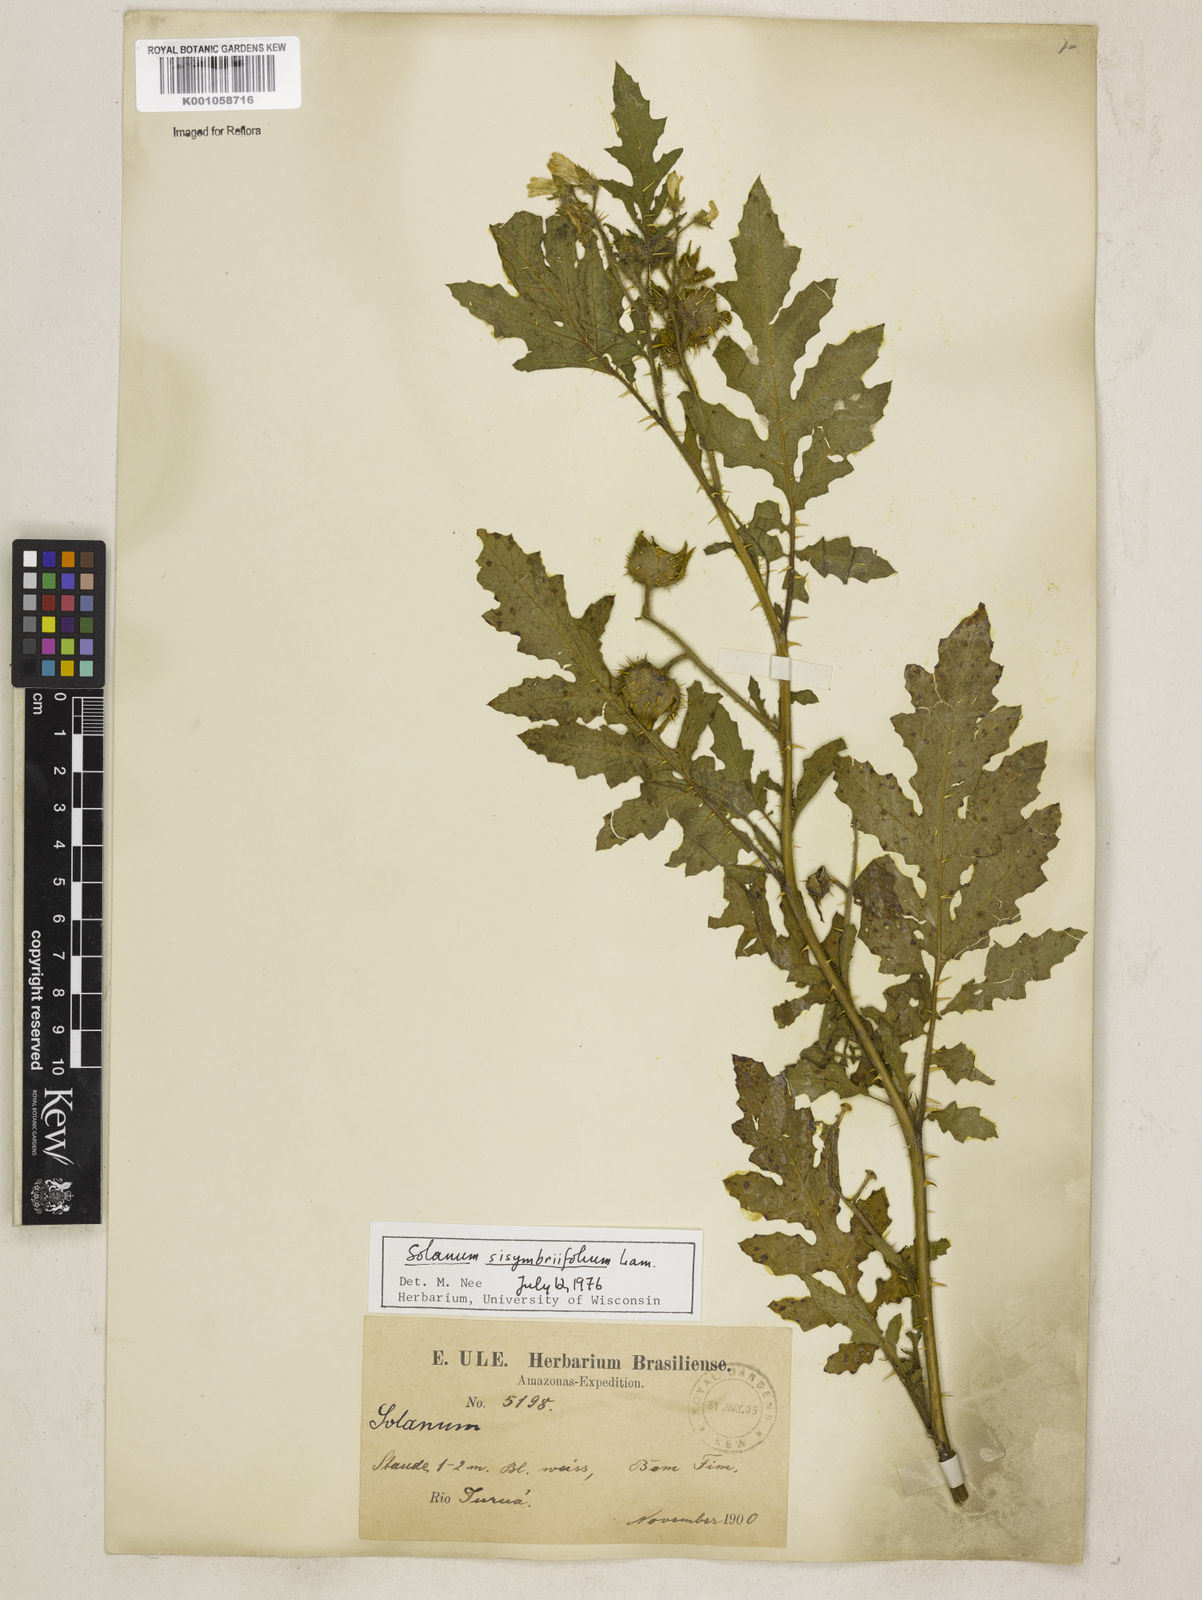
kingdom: Plantae
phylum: Tracheophyta
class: Magnoliopsida
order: Solanales
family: Solanaceae
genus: Solanum
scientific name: Solanum sisymbriifolium
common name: Red buffalo-bur
